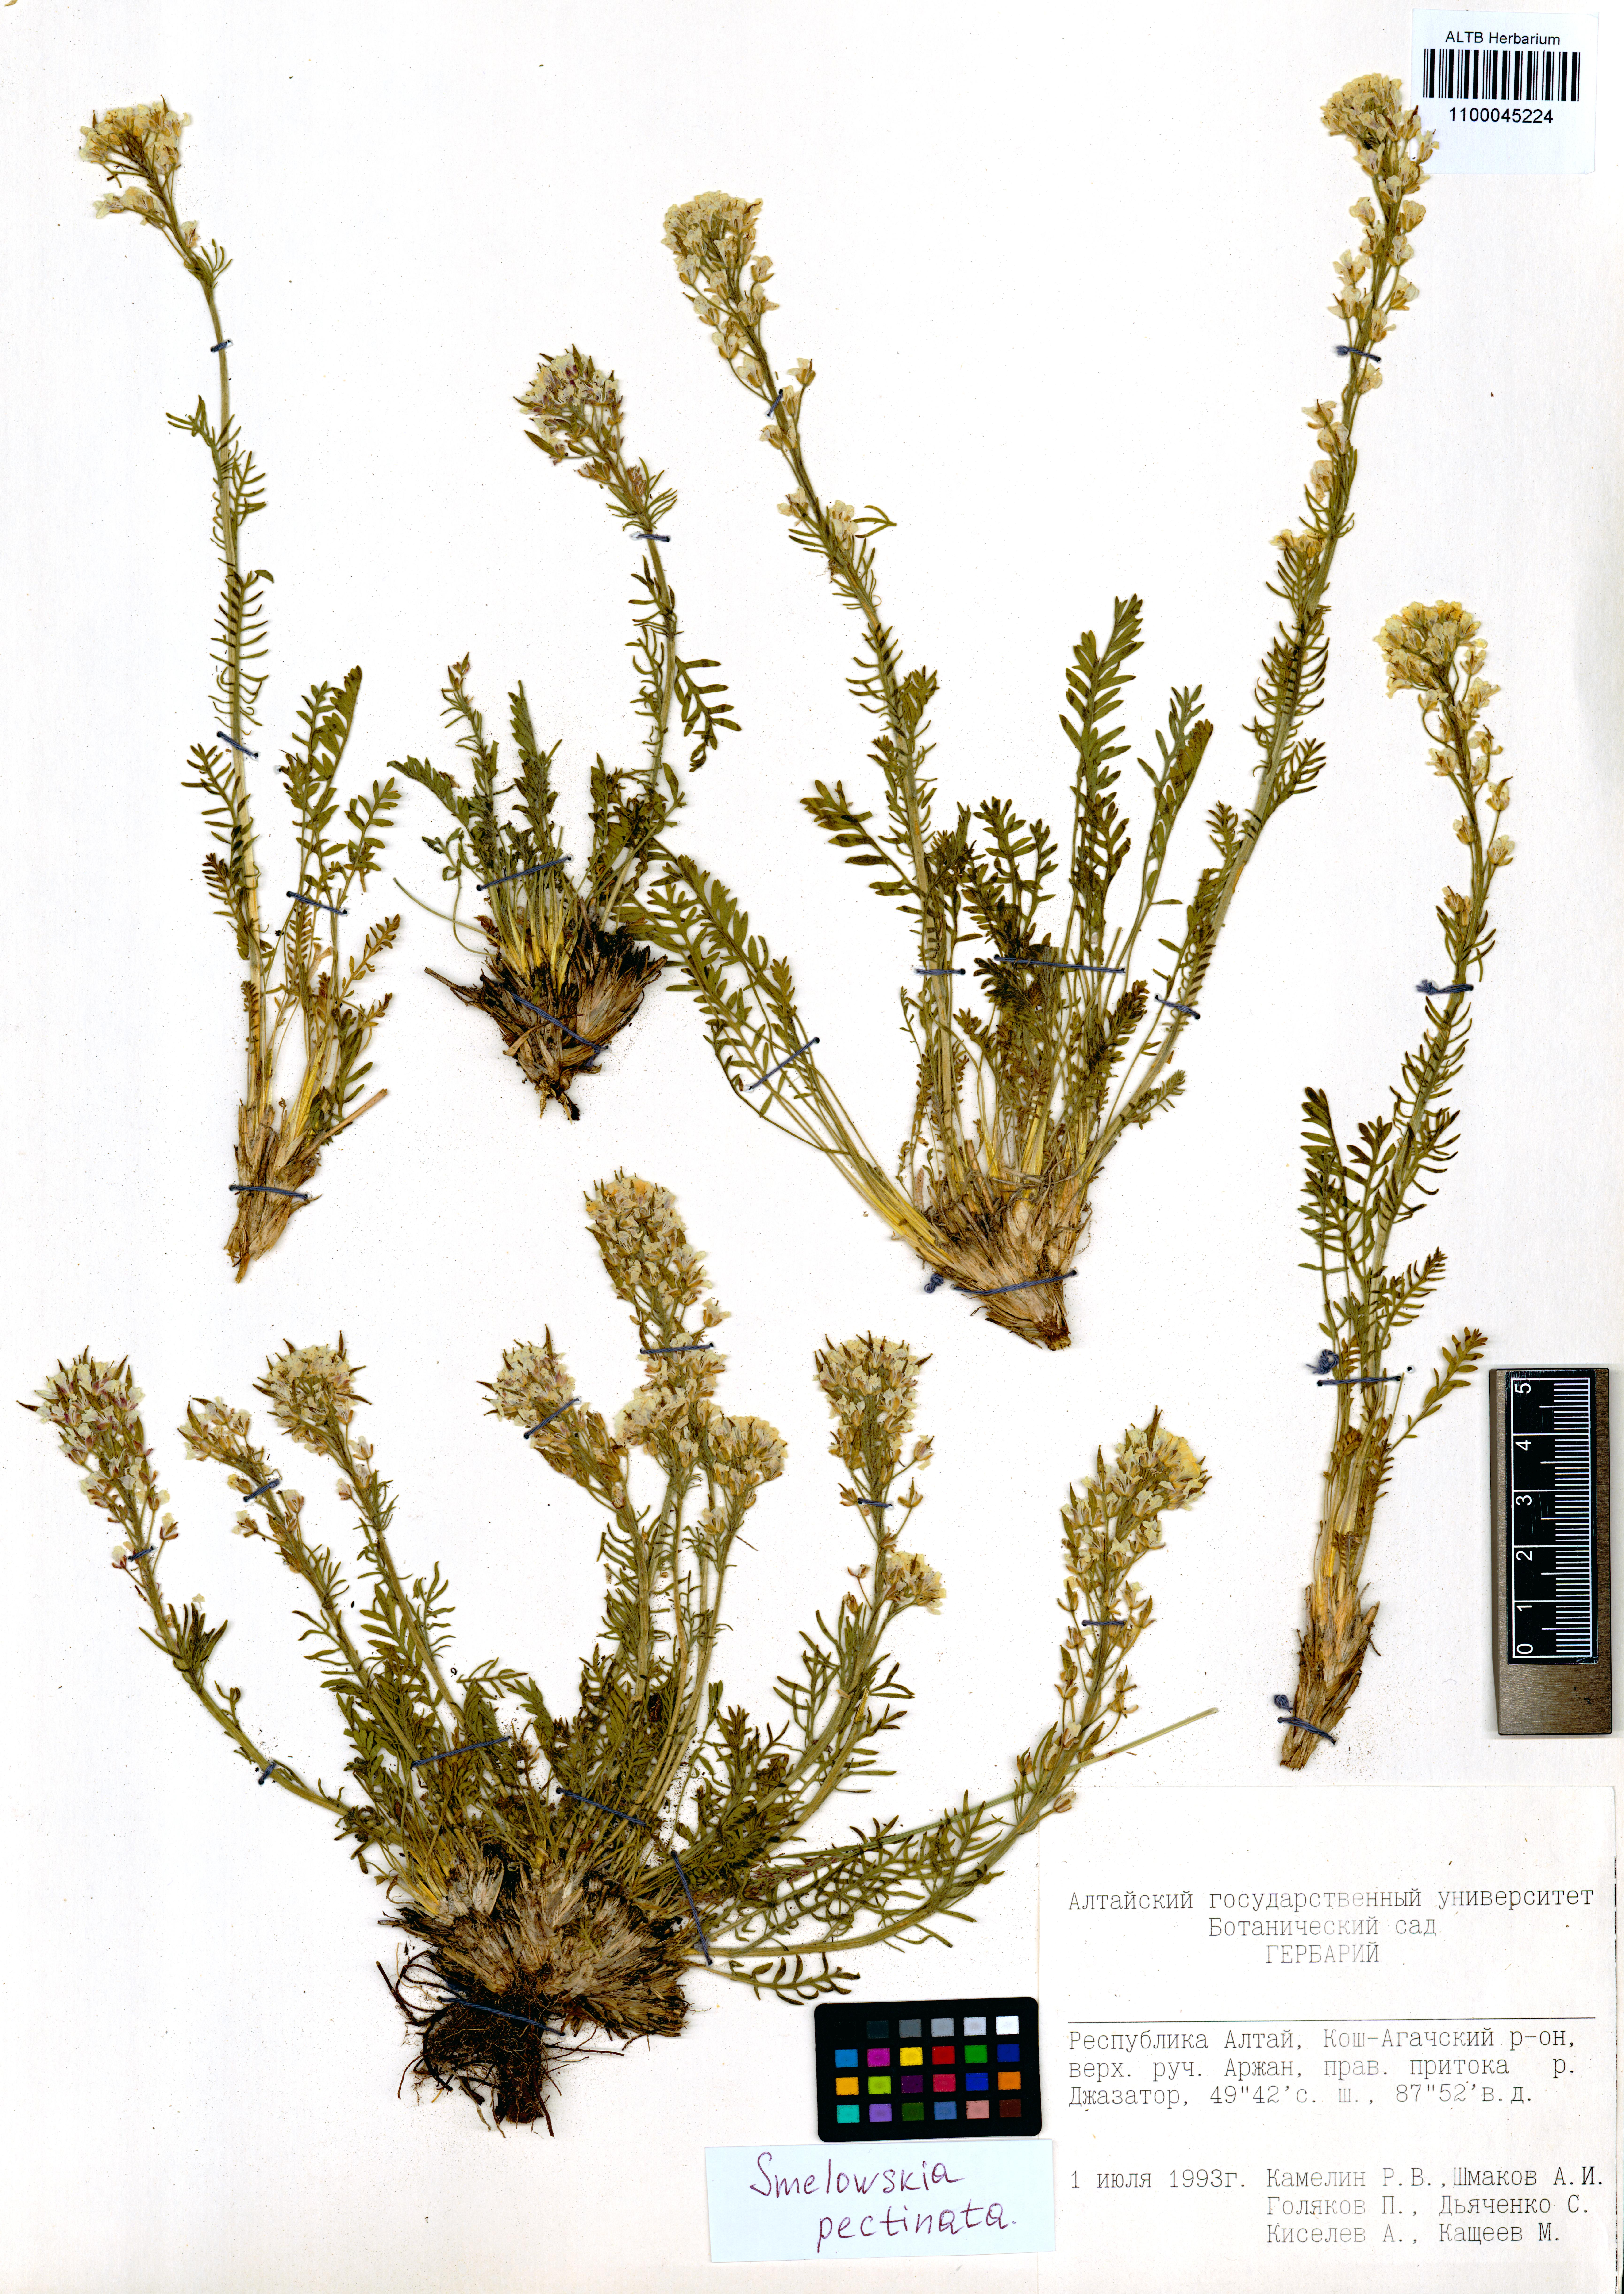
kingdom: Plantae
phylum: Tracheophyta
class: Magnoliopsida
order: Brassicales
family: Brassicaceae
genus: Smelowskia
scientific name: Smelowskia calycina
